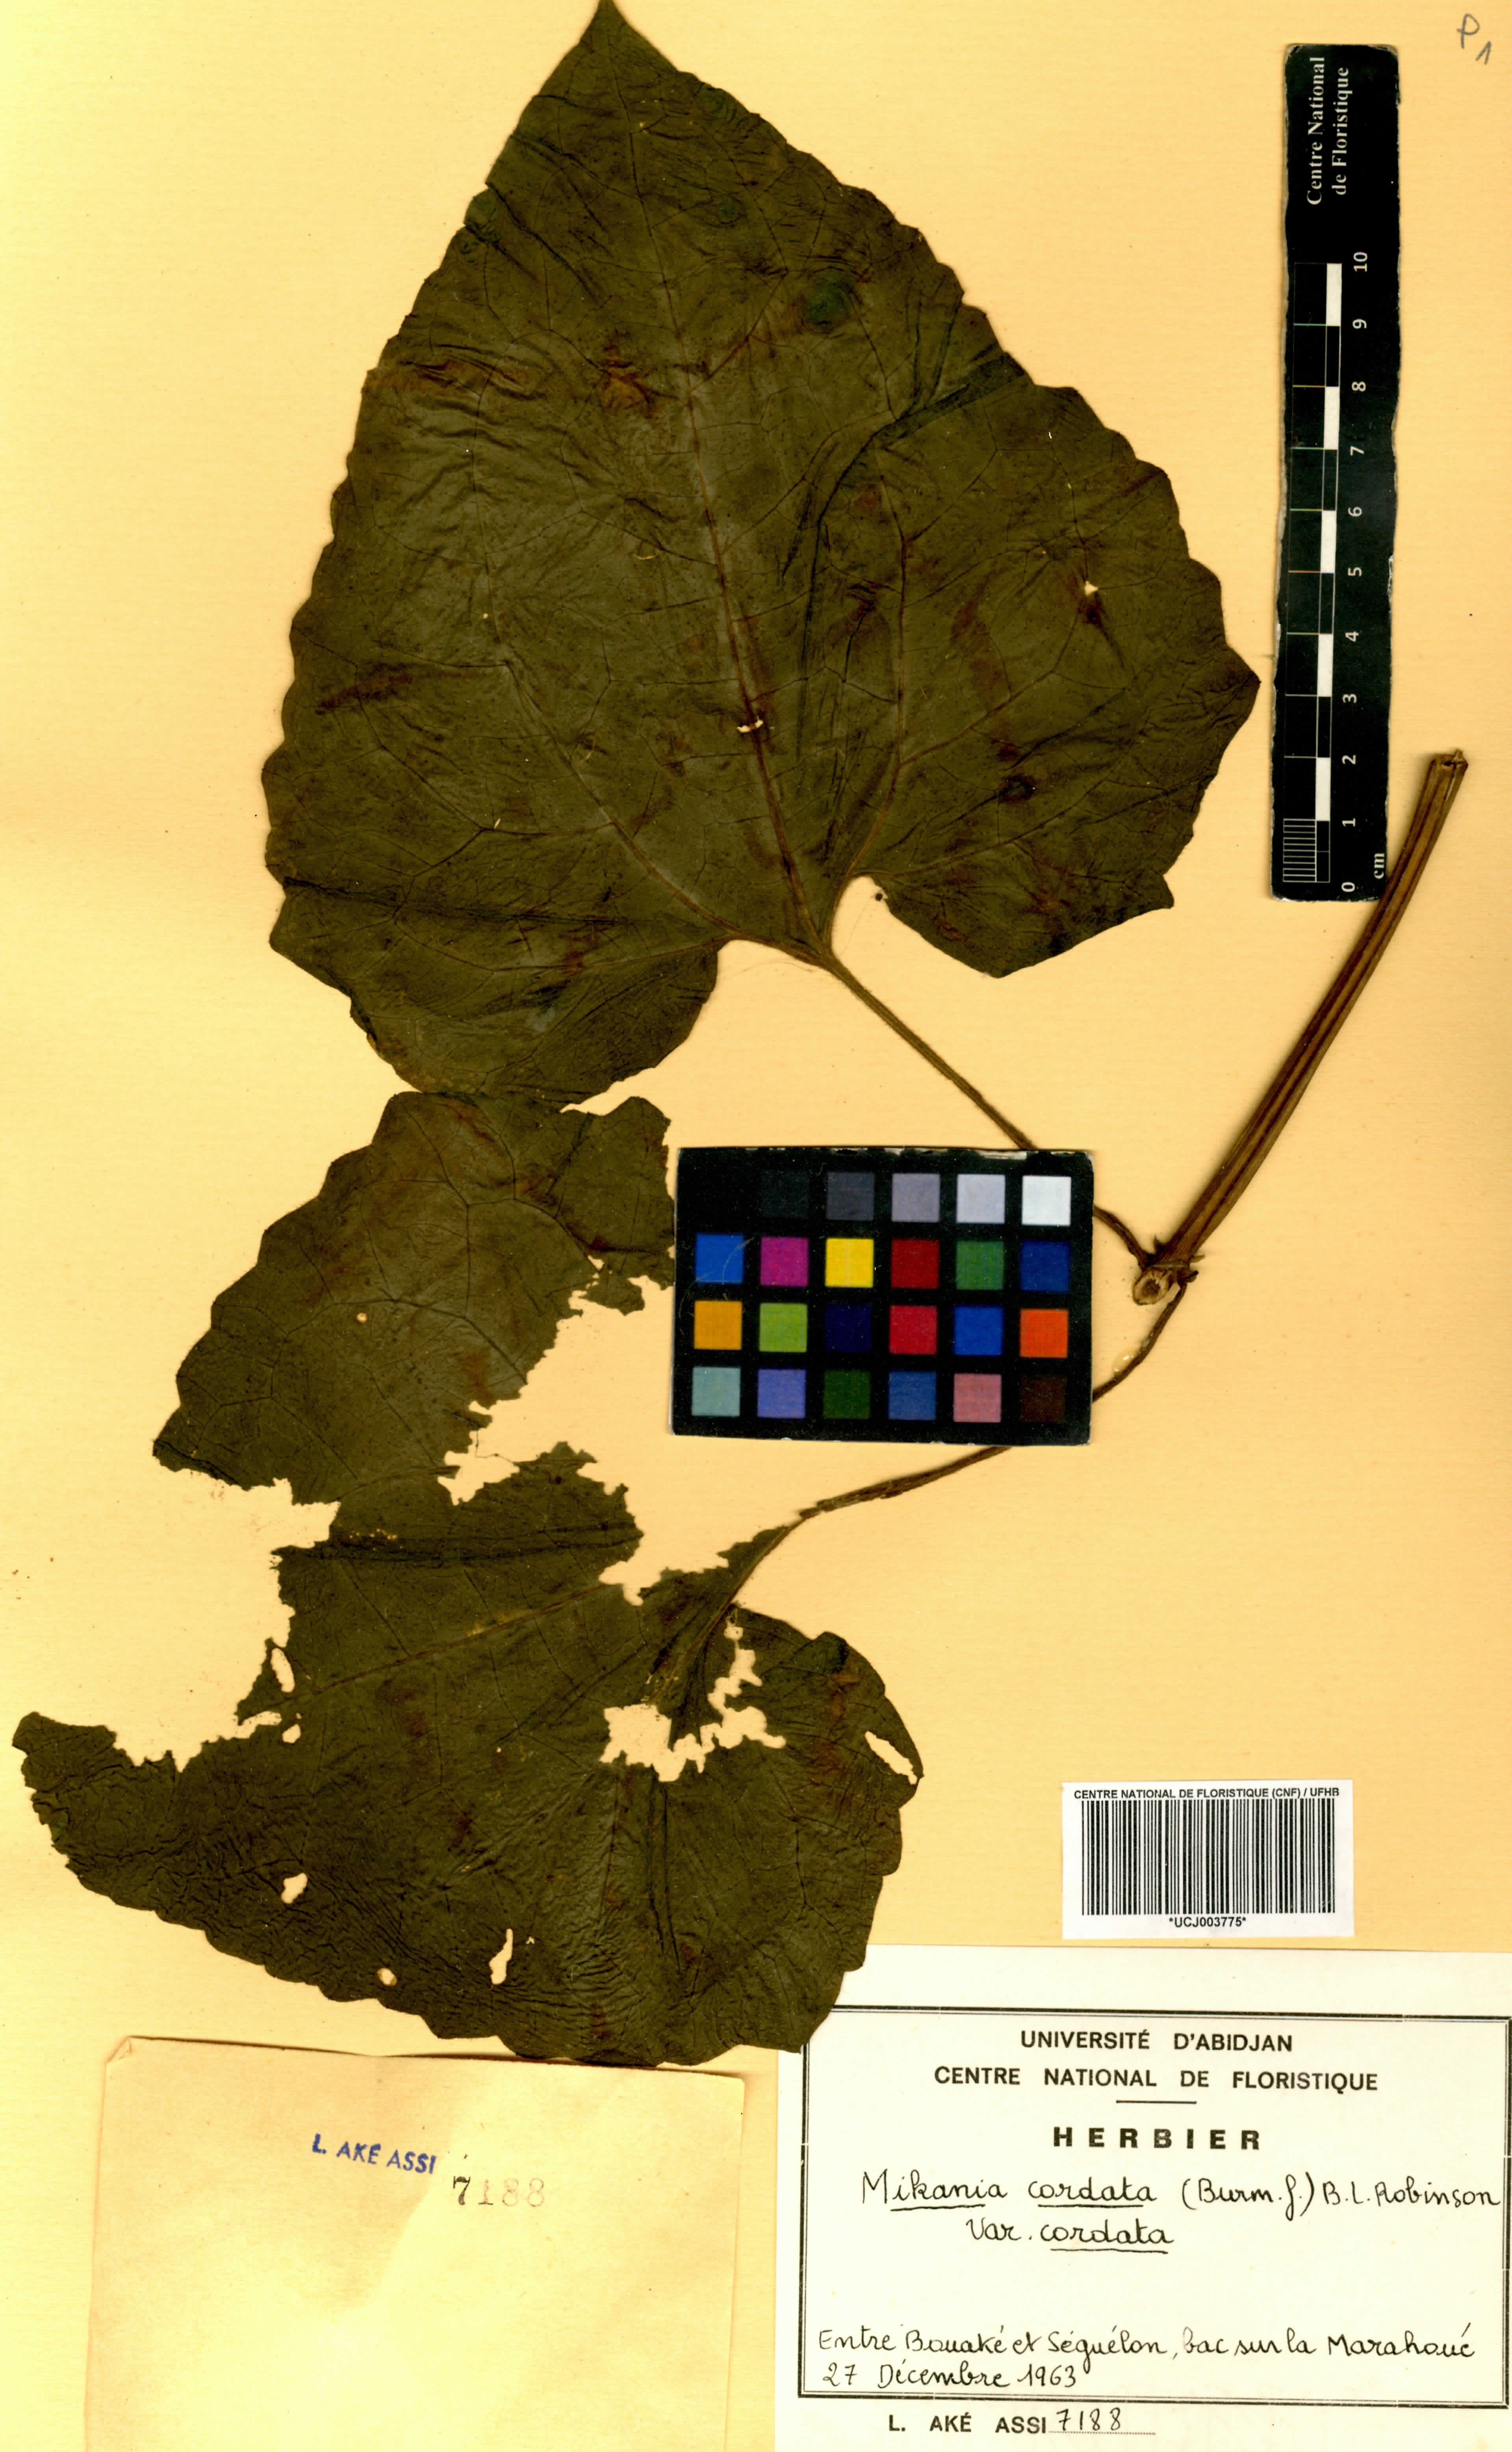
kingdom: Plantae
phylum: Tracheophyta
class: Magnoliopsida
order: Asterales
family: Asteraceae
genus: Mikania
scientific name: Mikania cordata
